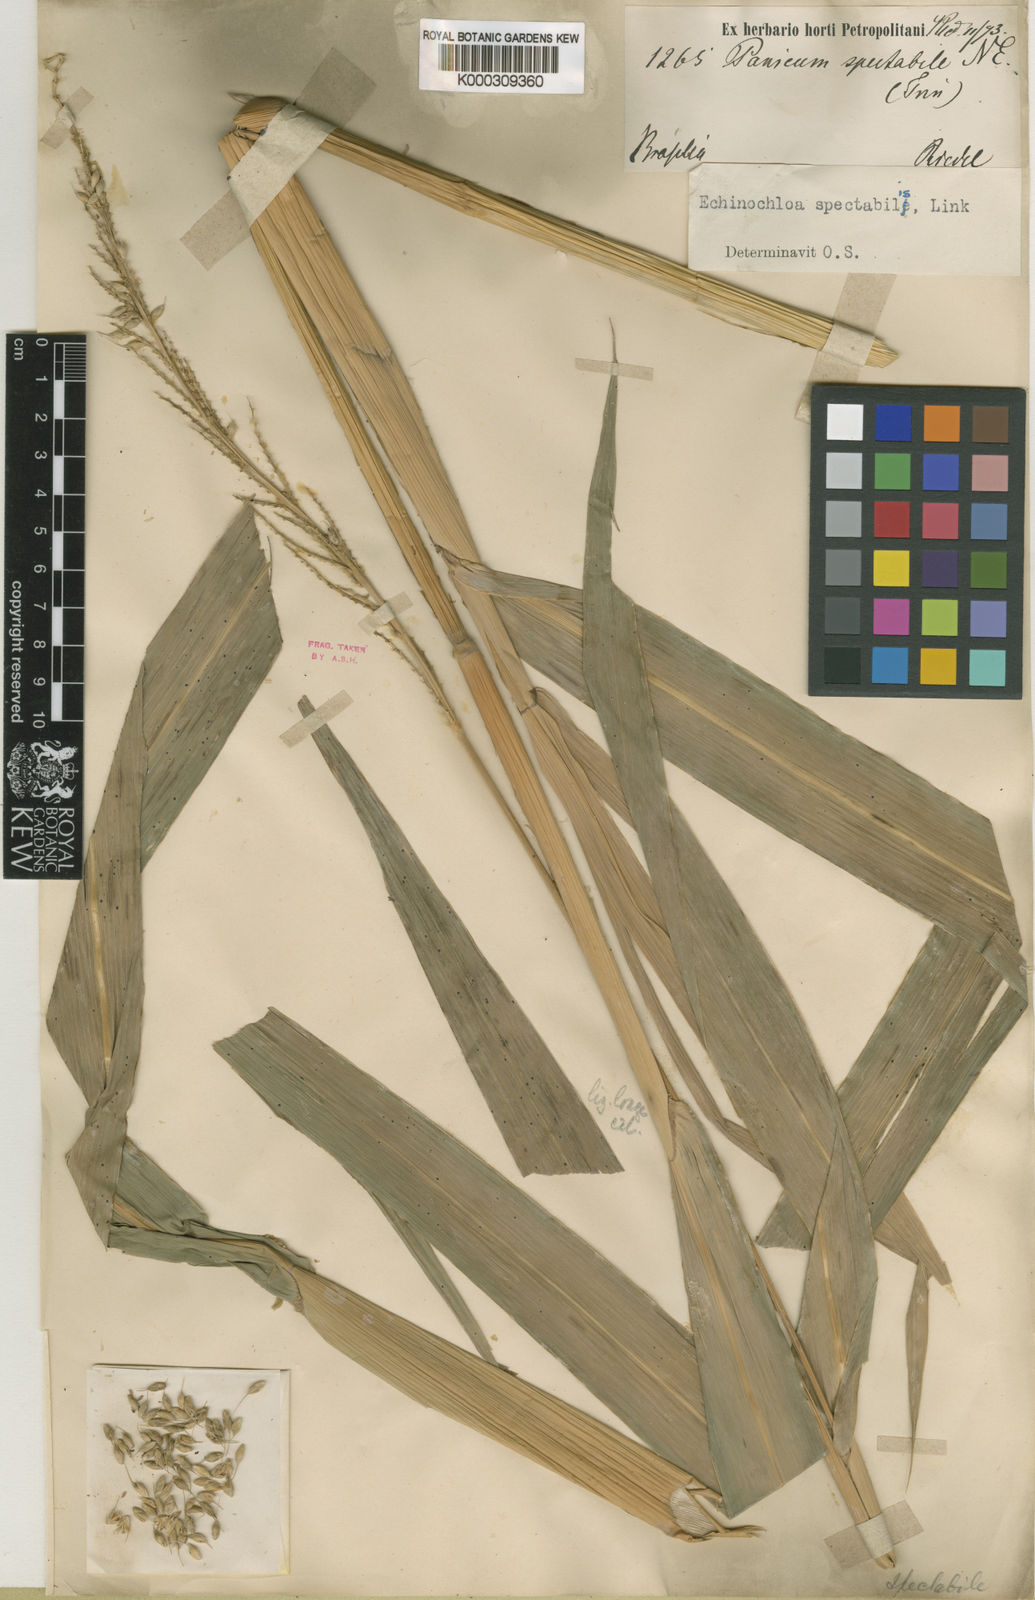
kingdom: Plantae
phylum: Tracheophyta
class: Liliopsida
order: Poales
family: Poaceae
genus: Echinochloa
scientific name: Echinochloa polystachya
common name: Creeping river grass
